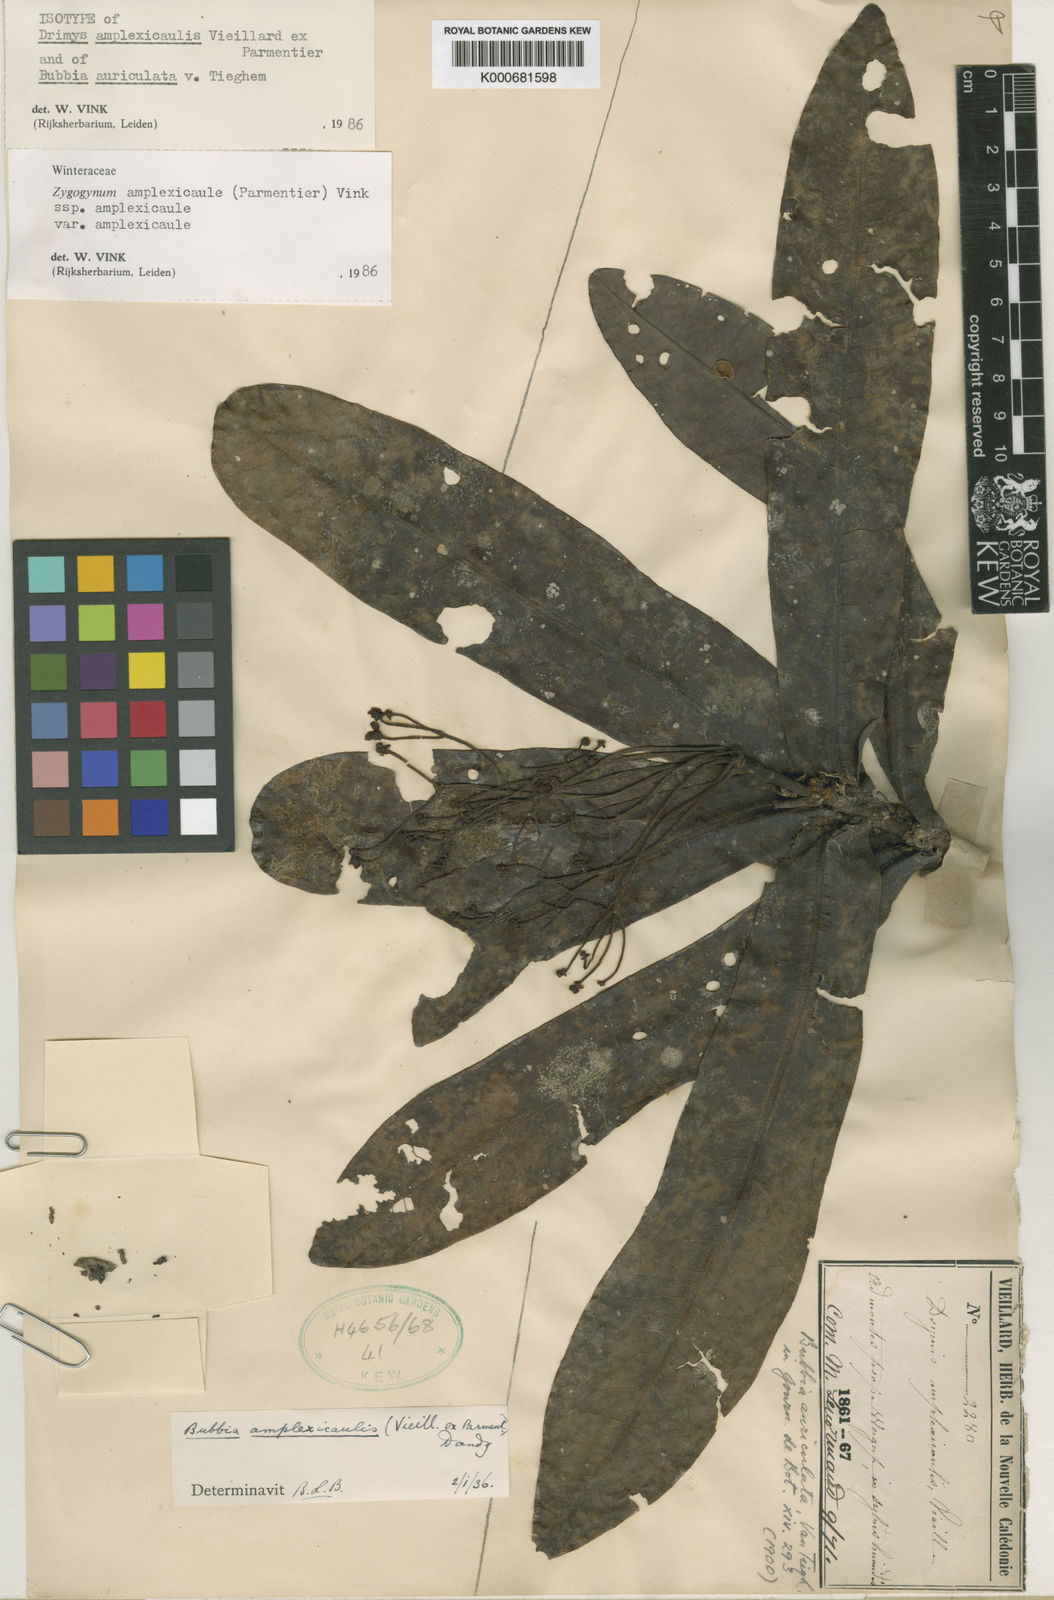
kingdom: Plantae
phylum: Tracheophyta
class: Magnoliopsida
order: Canellales
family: Winteraceae
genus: Zygogynum
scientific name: Zygogynum amplexicaule
